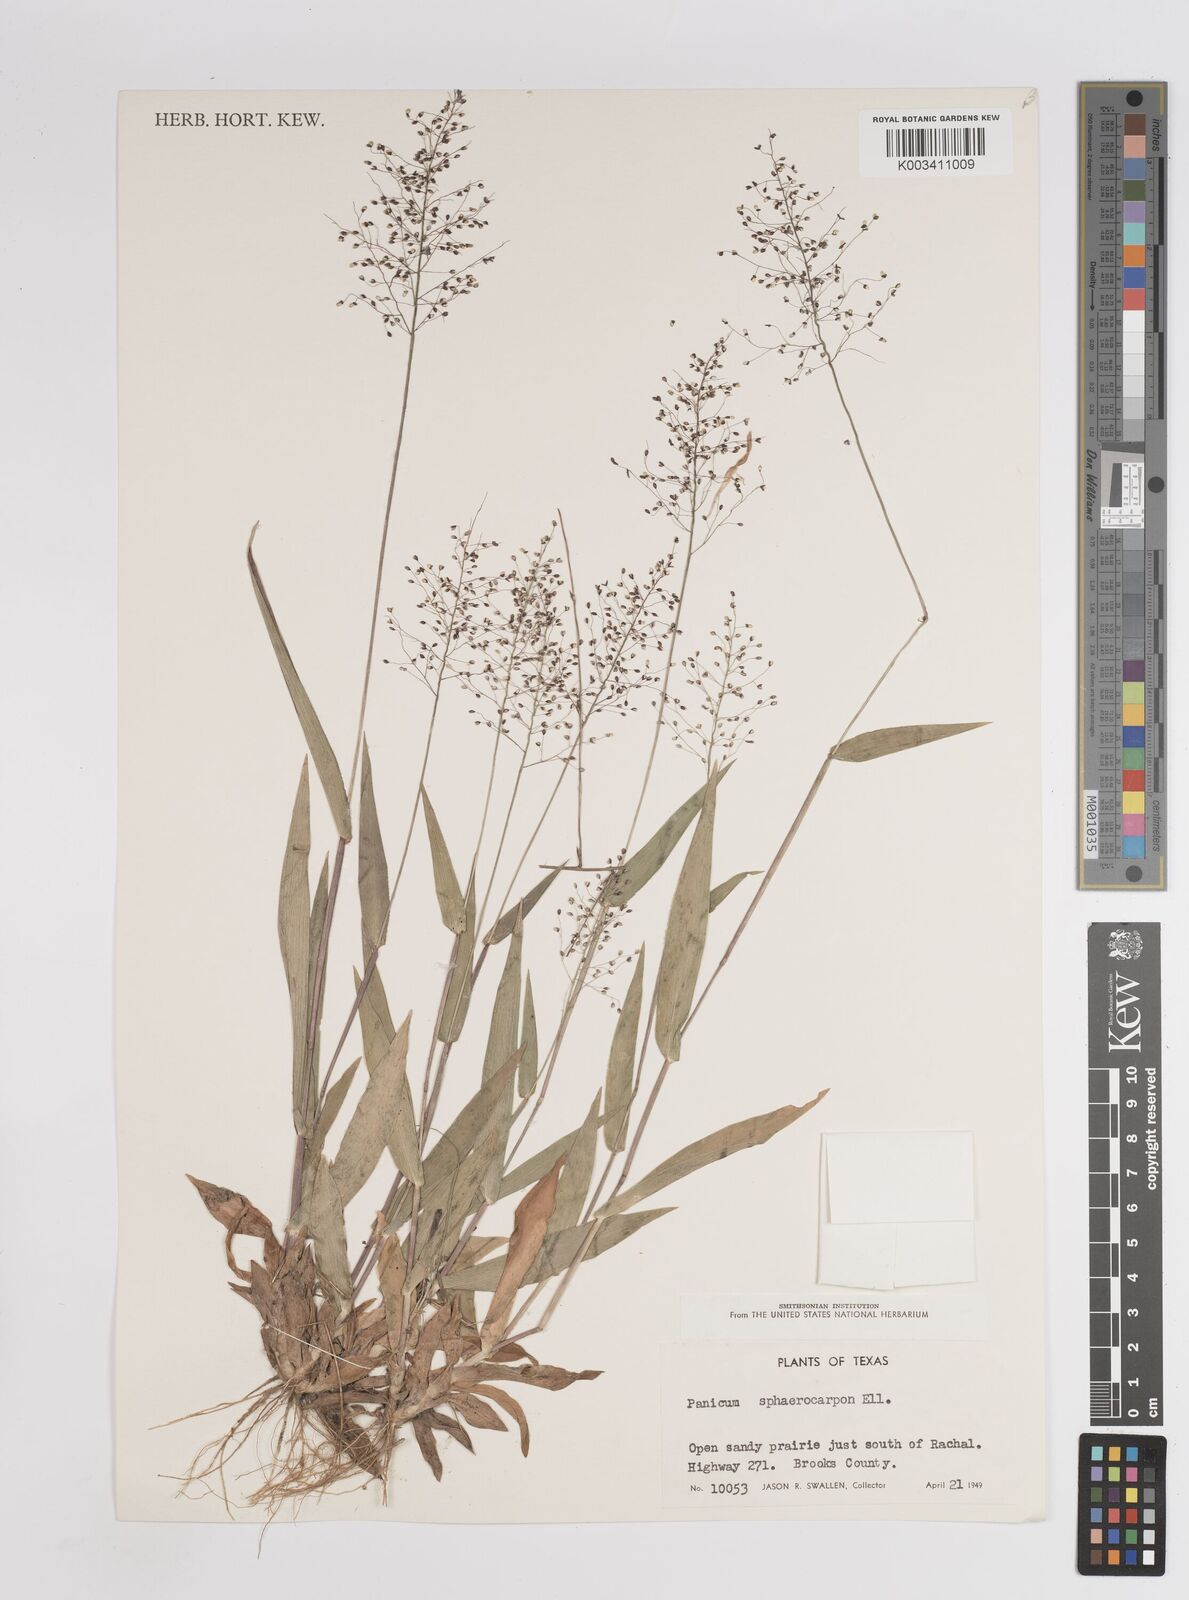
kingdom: Plantae
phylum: Tracheophyta
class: Liliopsida
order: Poales
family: Poaceae
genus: Setaria
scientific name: Setaria tenax
